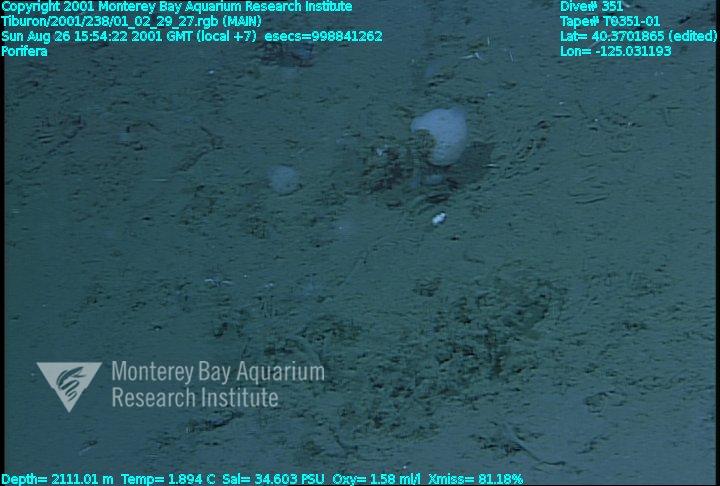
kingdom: Animalia
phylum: Porifera
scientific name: Porifera
